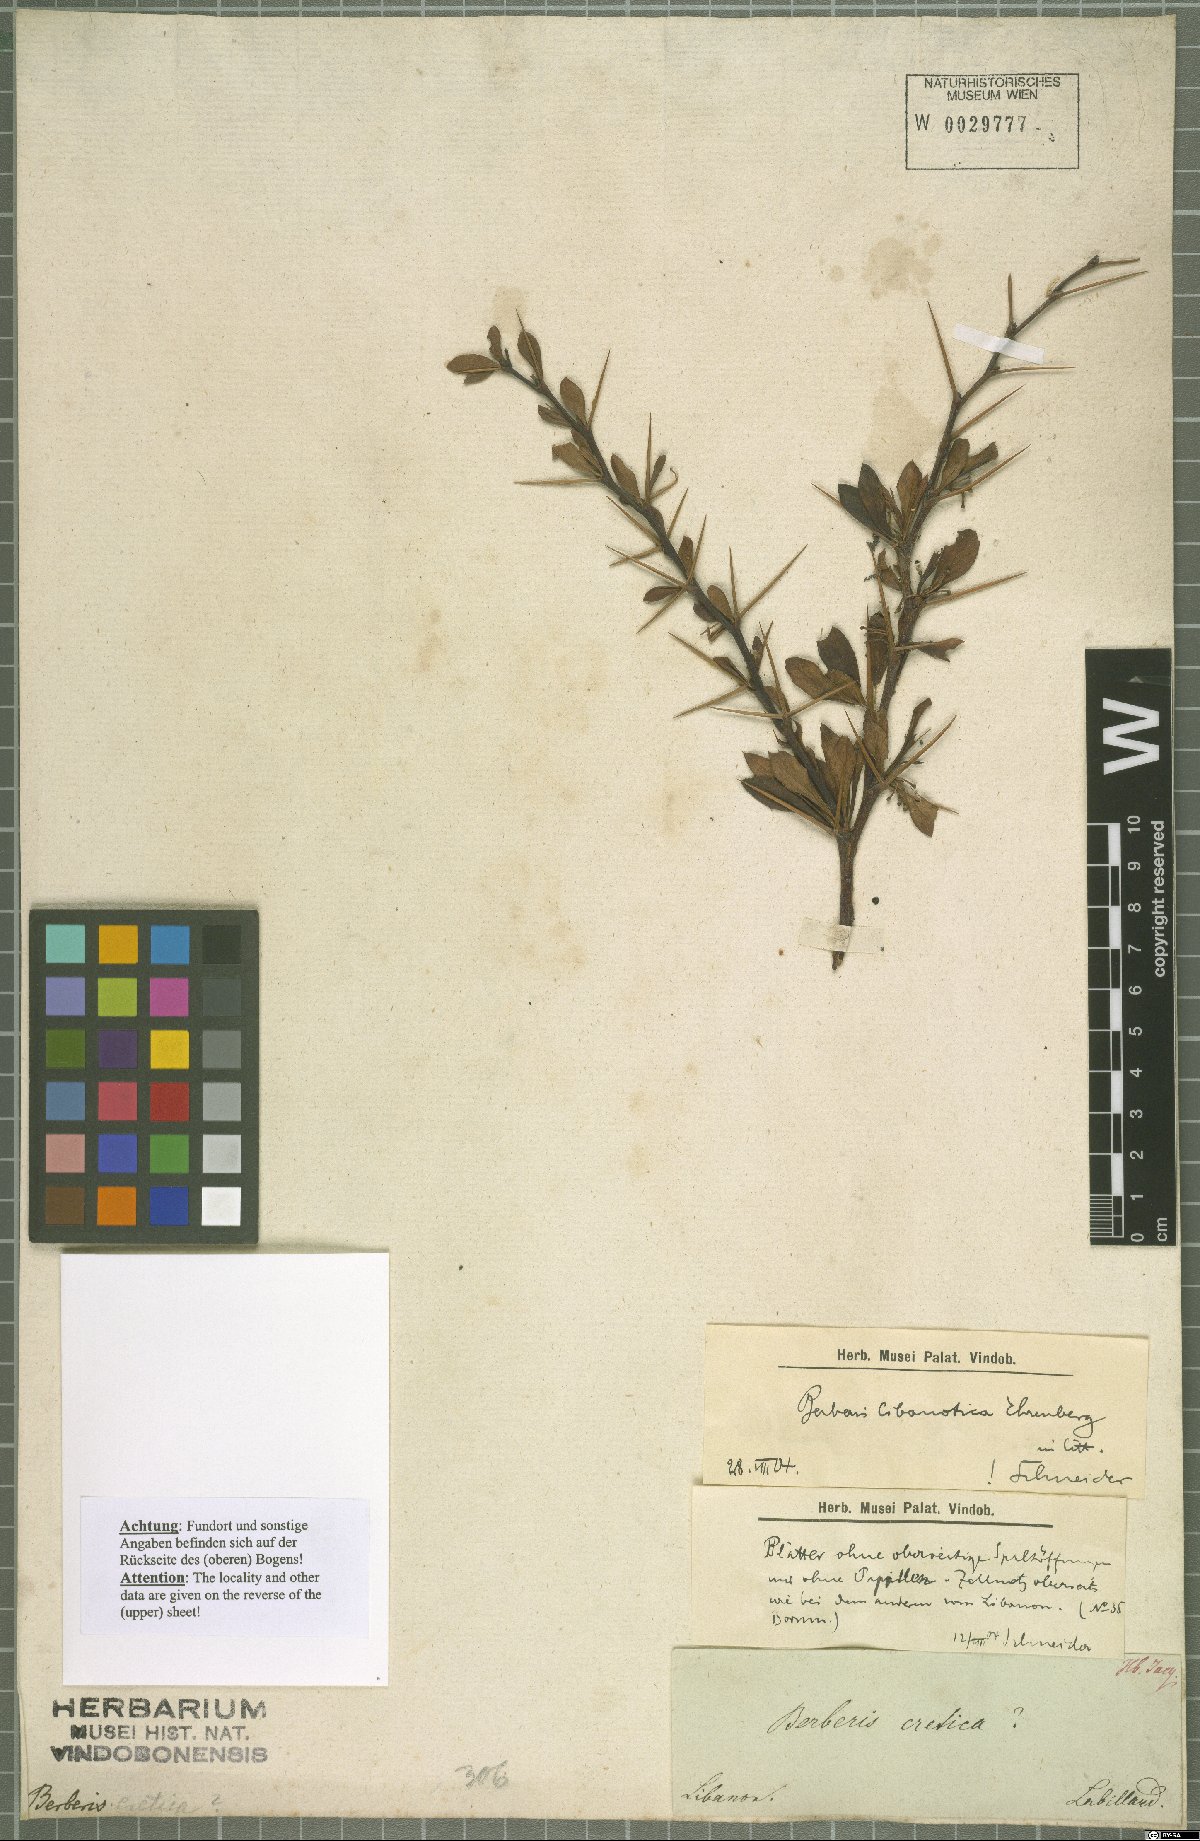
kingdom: Plantae
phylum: Tracheophyta
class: Magnoliopsida
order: Ranunculales
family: Berberidaceae
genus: Berberis
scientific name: Berberis cretica
